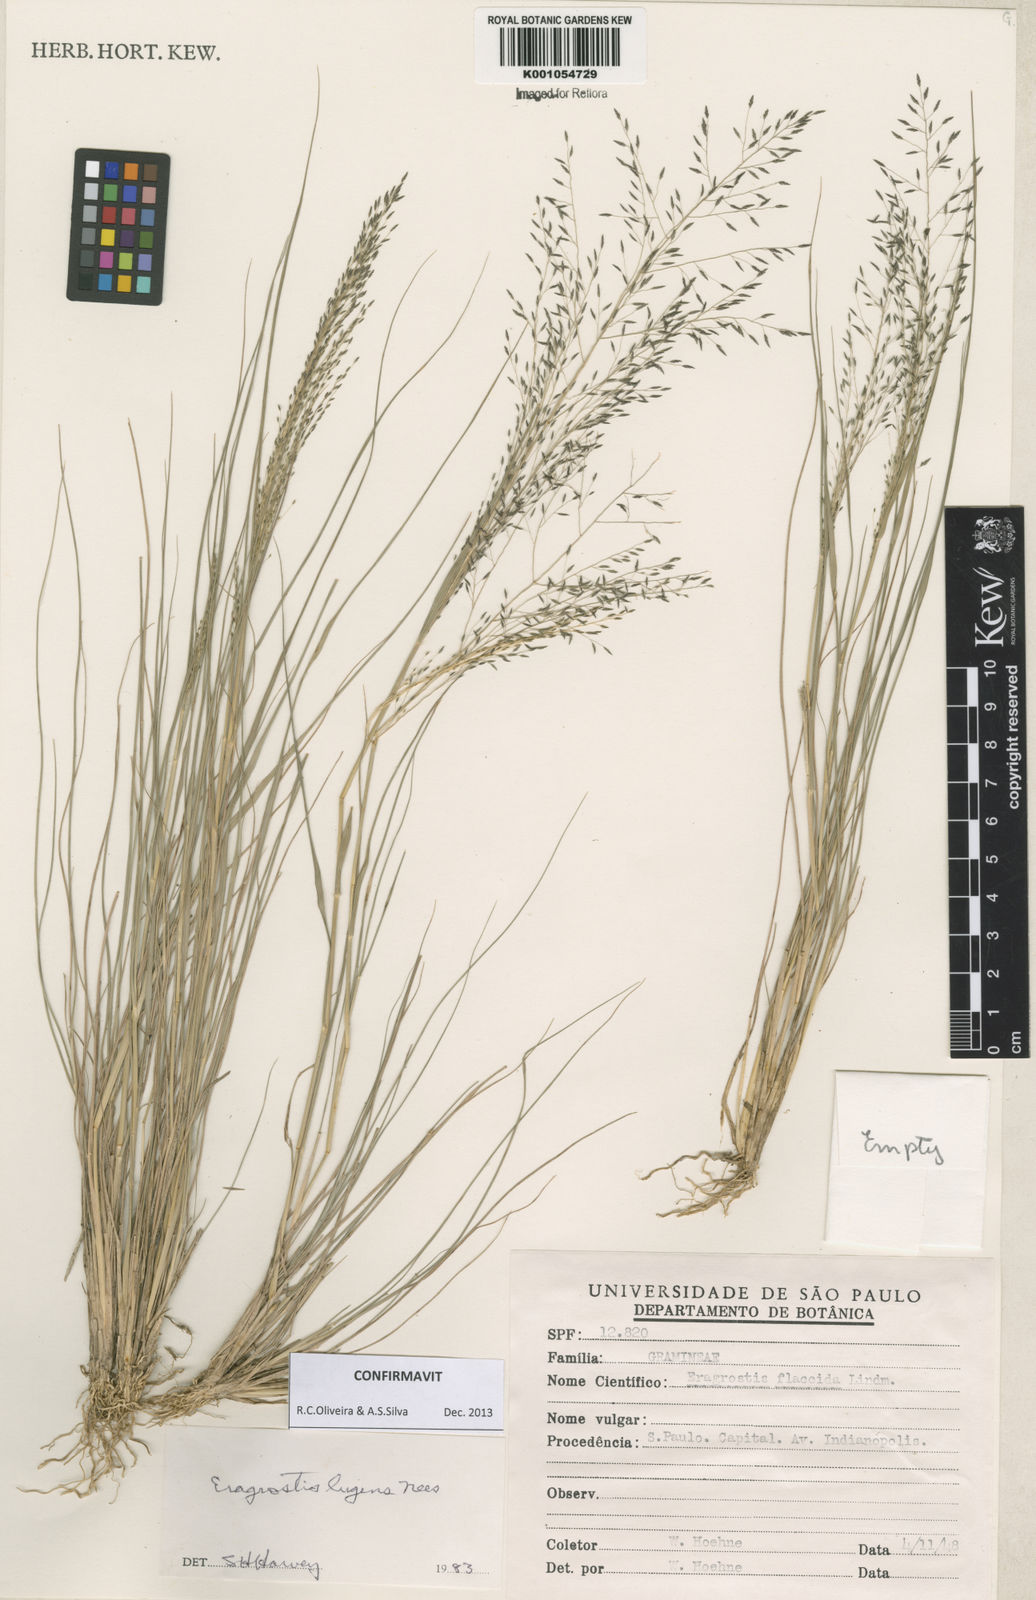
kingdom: Plantae
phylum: Tracheophyta
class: Liliopsida
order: Poales
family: Poaceae
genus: Eragrostis
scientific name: Eragrostis lugens
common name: Mourning love grass
